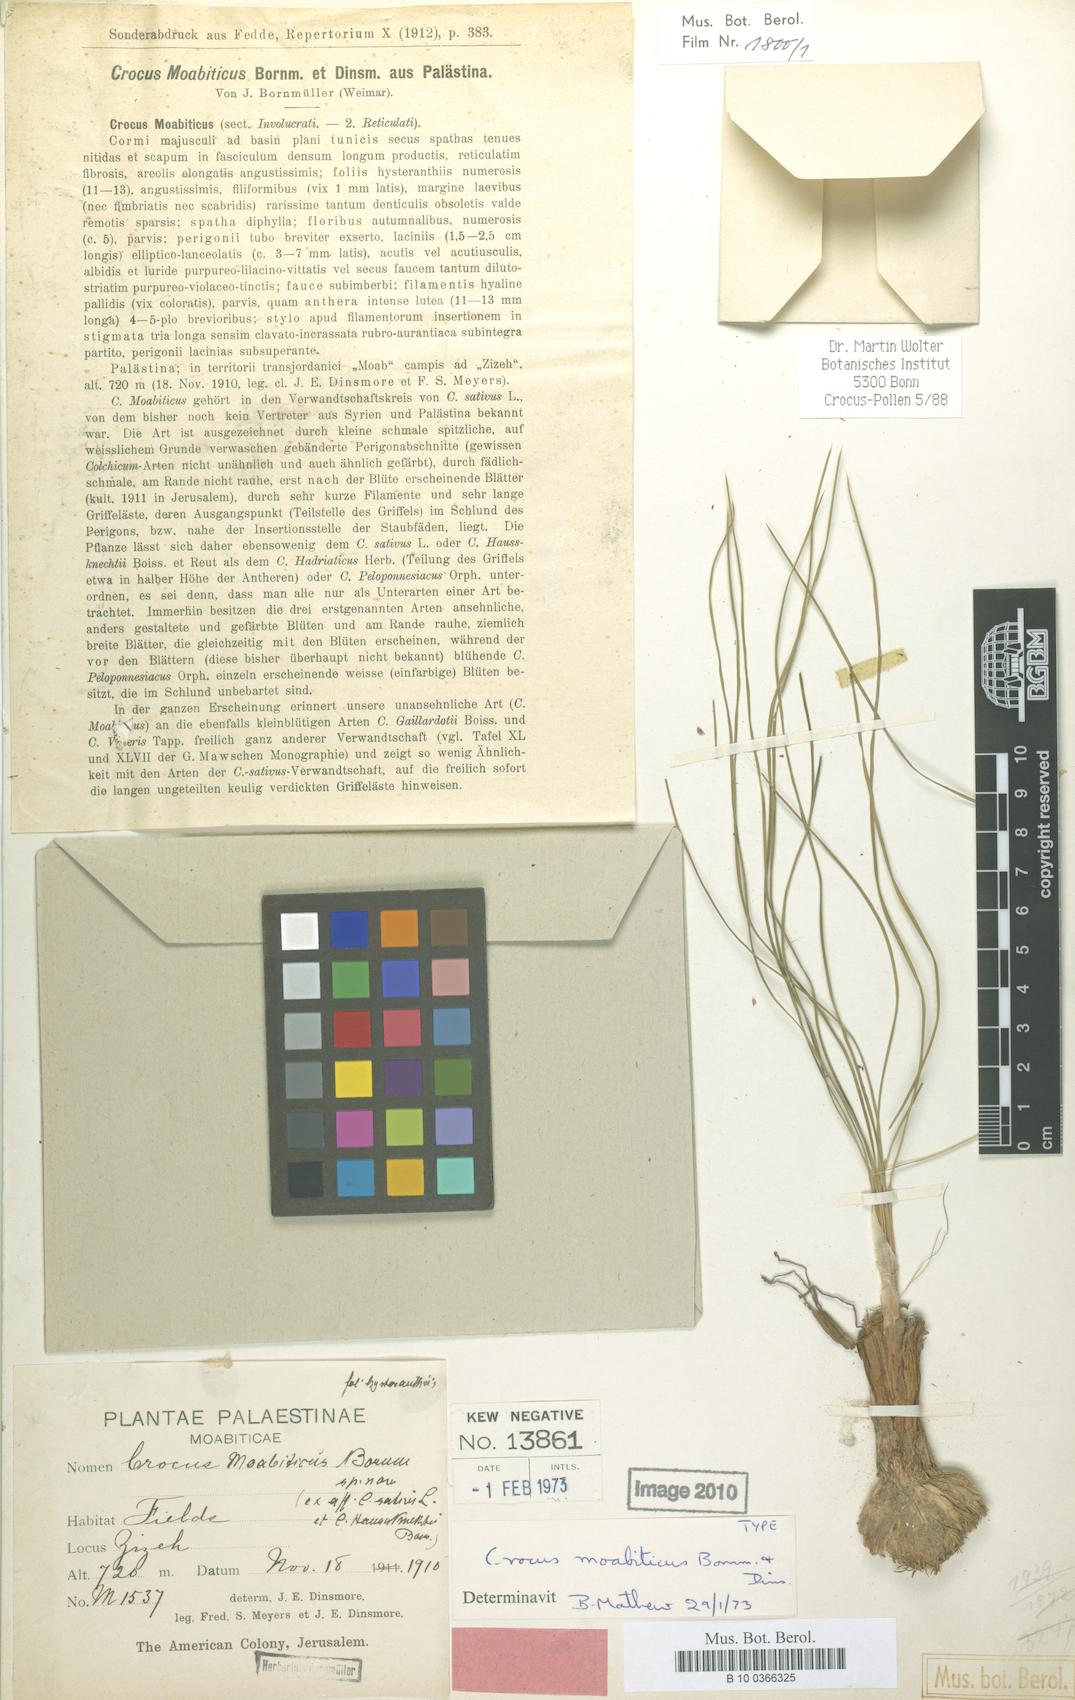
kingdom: Plantae
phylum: Tracheophyta
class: Liliopsida
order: Asparagales
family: Iridaceae
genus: Crocus
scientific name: Crocus moabiticus
